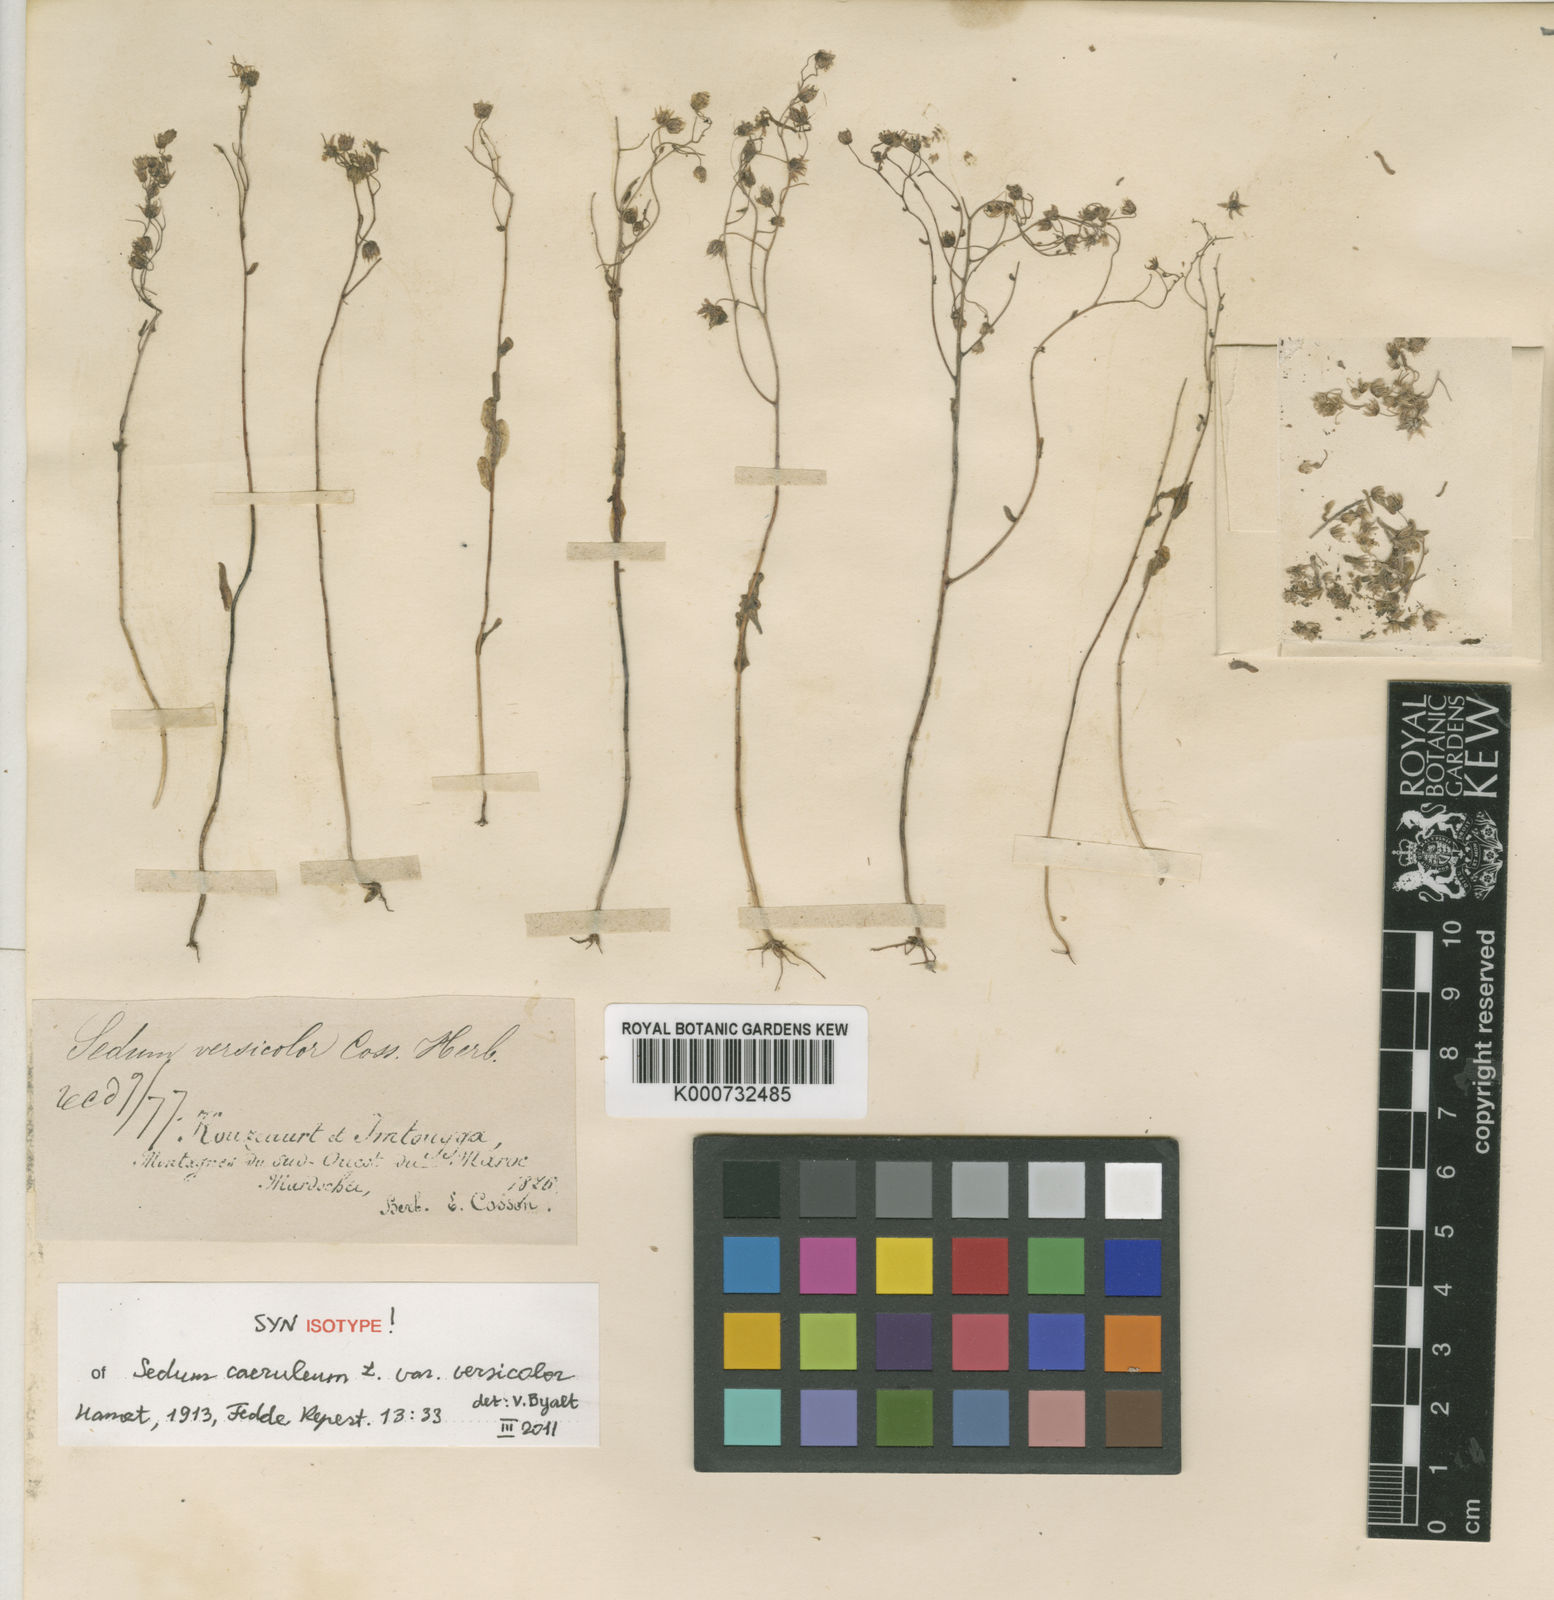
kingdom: Plantae
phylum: Tracheophyta
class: Magnoliopsida
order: Saxifragales
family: Crassulaceae
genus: Sedum
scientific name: Sedum
